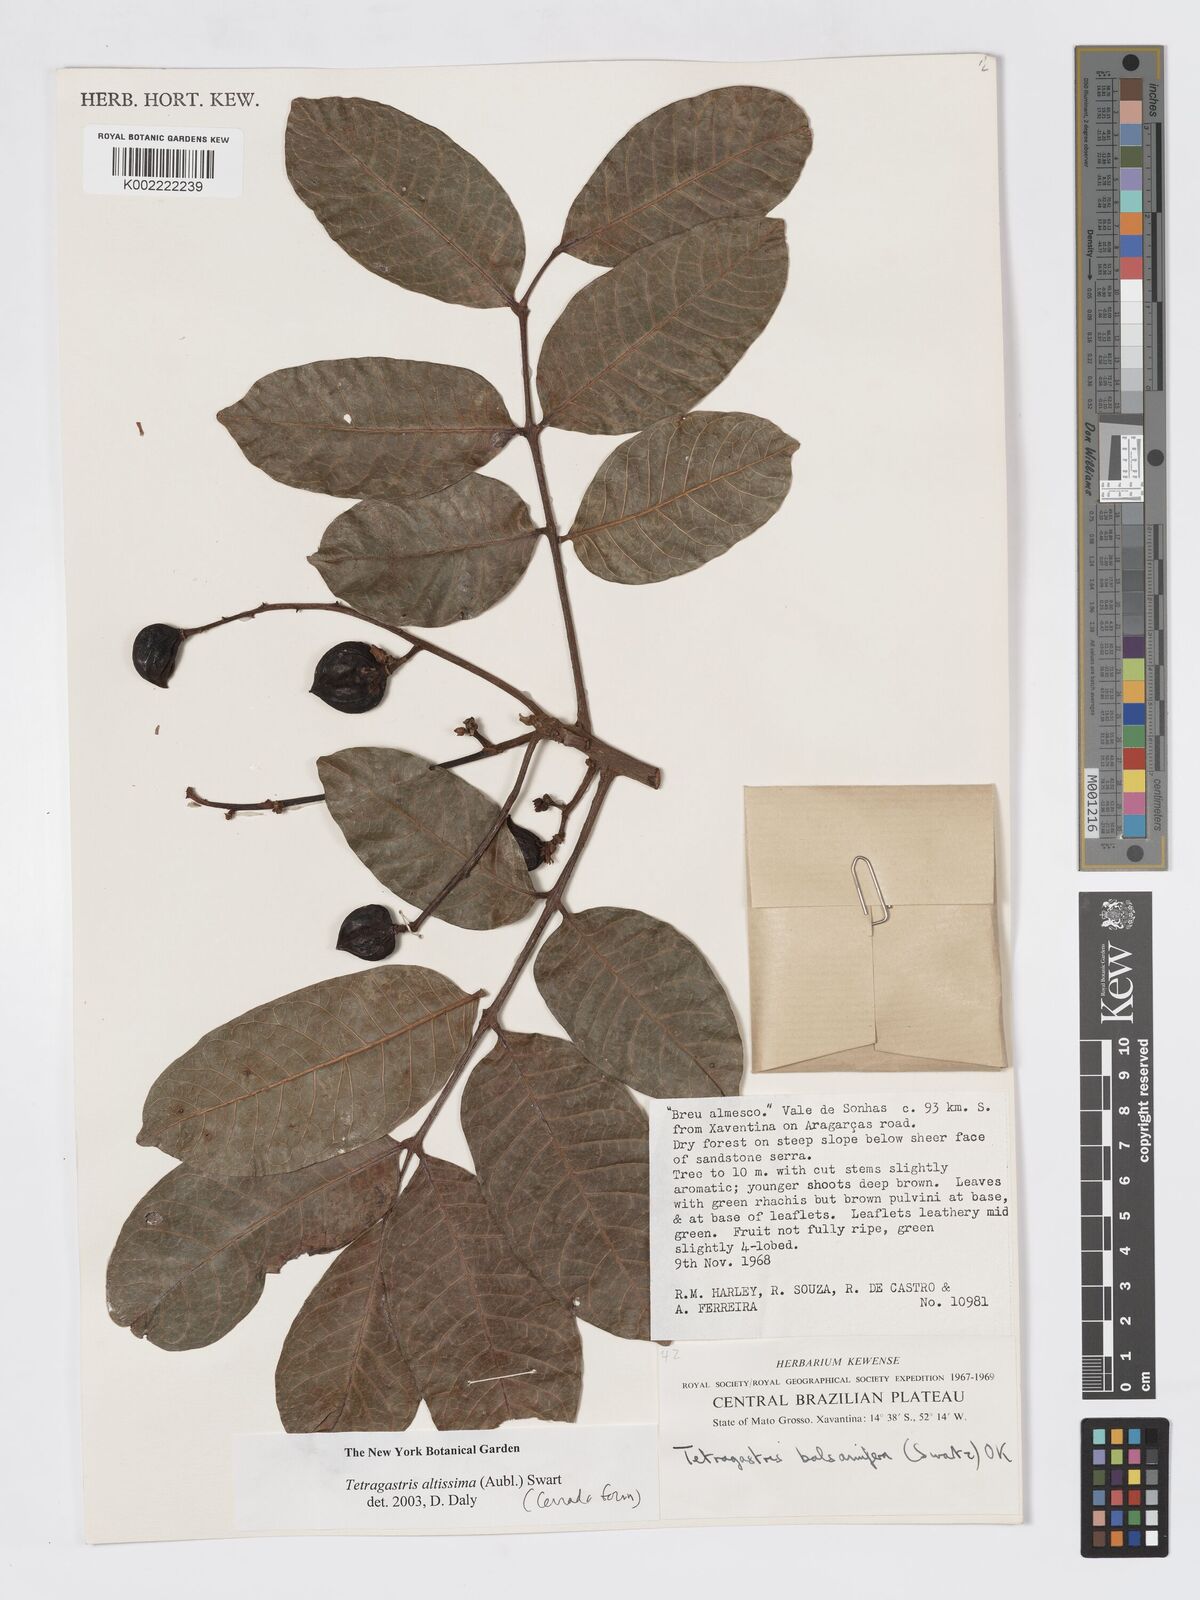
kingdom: Plantae
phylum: Tracheophyta
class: Magnoliopsida
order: Sapindales
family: Burseraceae
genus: Tetragastris
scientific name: Tetragastris altissima
